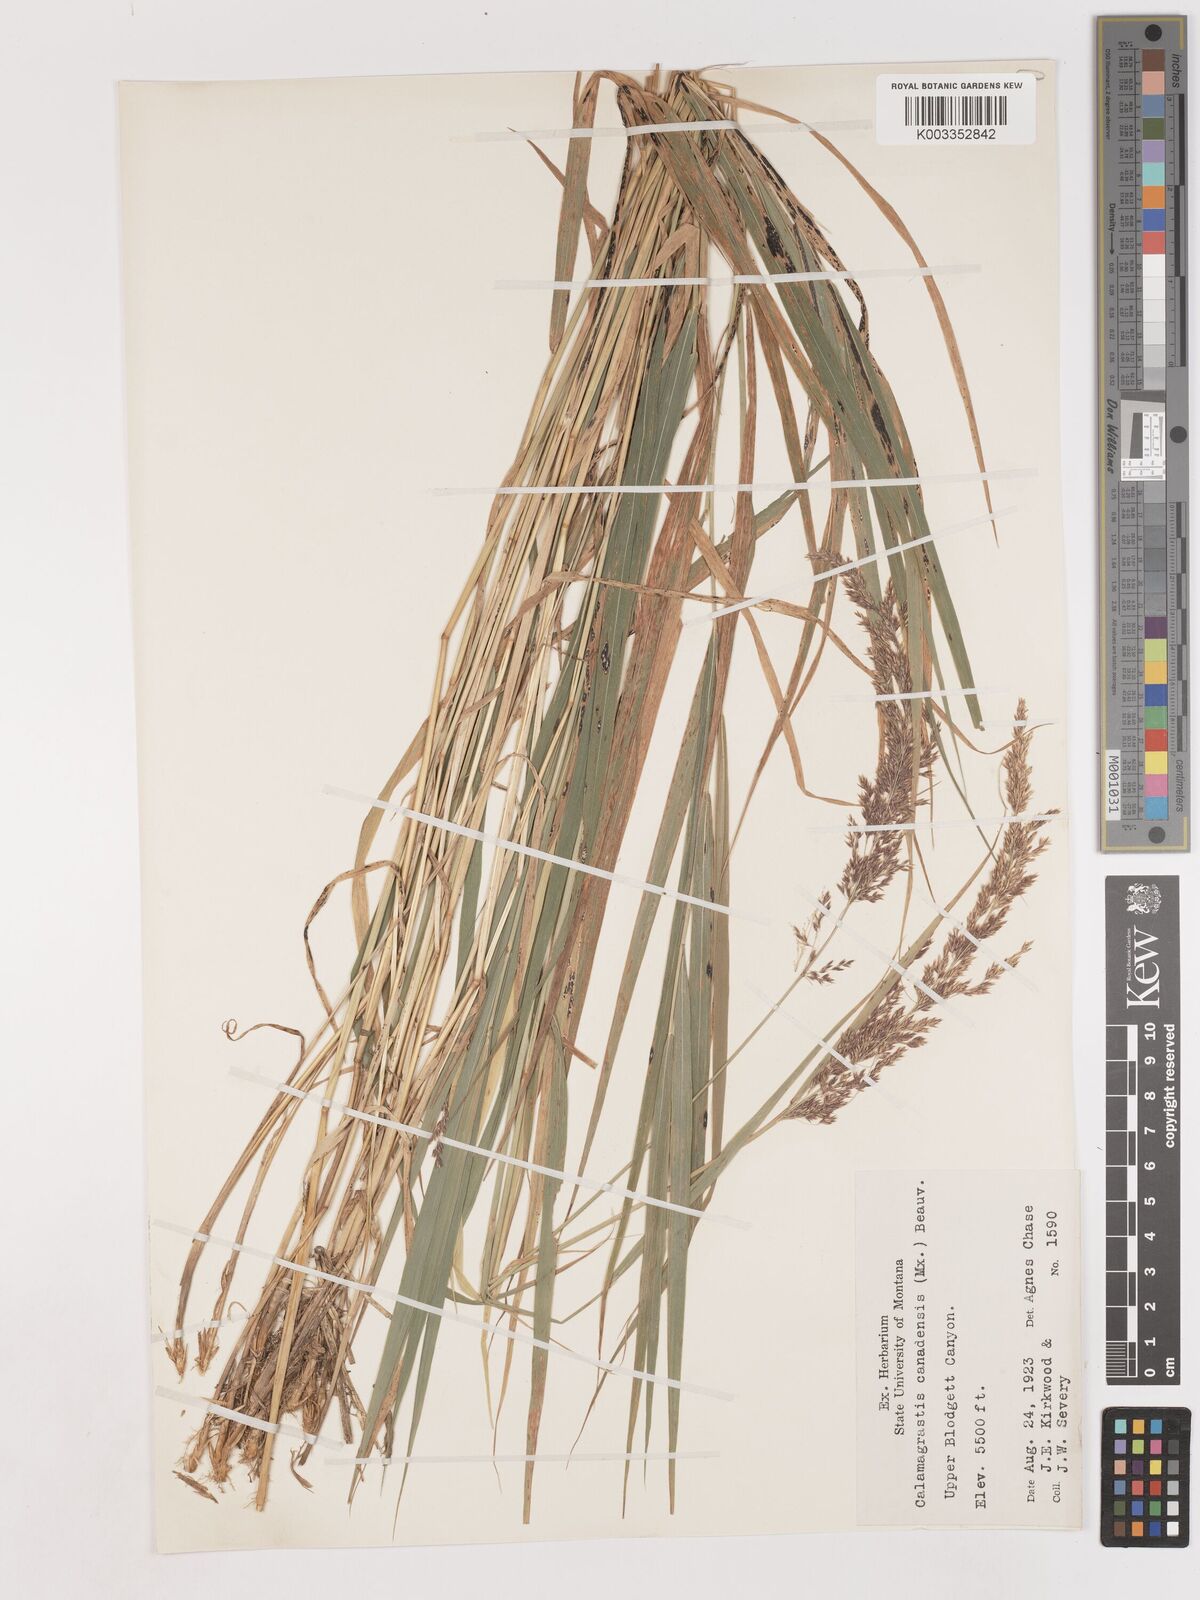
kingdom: Plantae
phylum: Tracheophyta
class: Liliopsida
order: Poales
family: Poaceae
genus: Calamagrostis
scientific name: Calamagrostis canadensis
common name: Canada bluejoint
